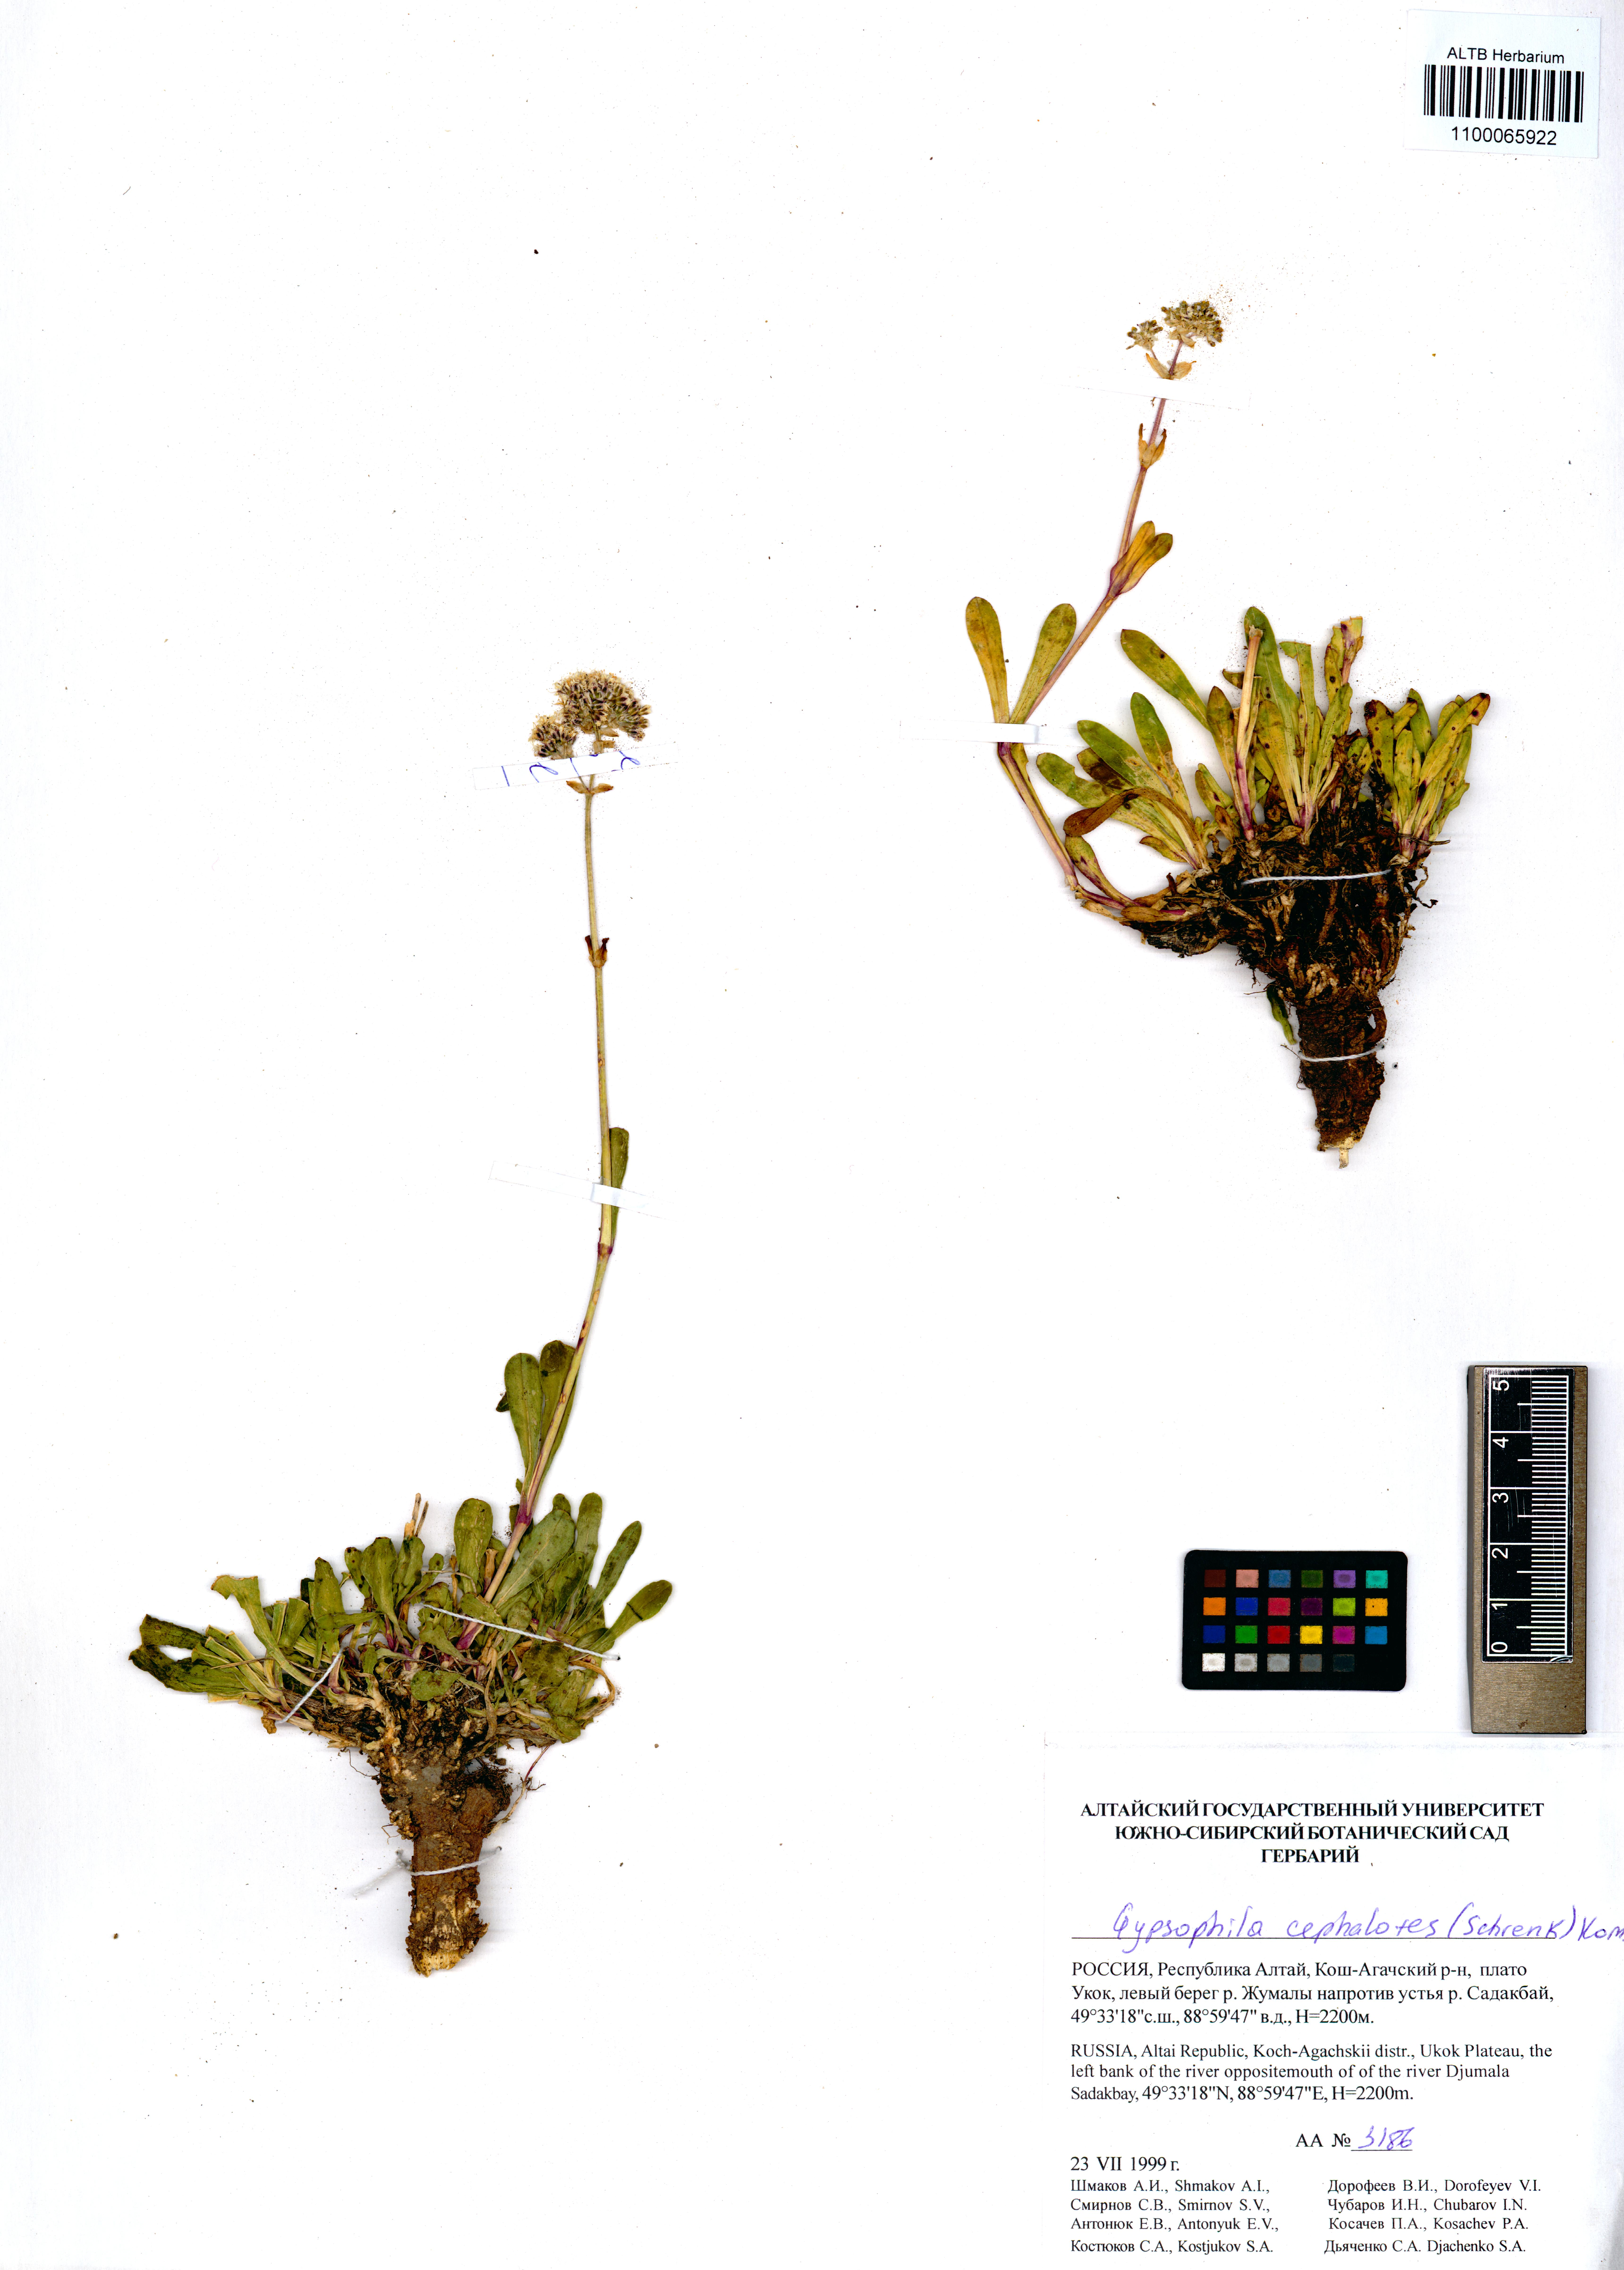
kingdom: Plantae
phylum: Tracheophyta
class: Magnoliopsida
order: Caryophyllales
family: Caryophyllaceae
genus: Gypsophila
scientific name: Gypsophila cephalotes
